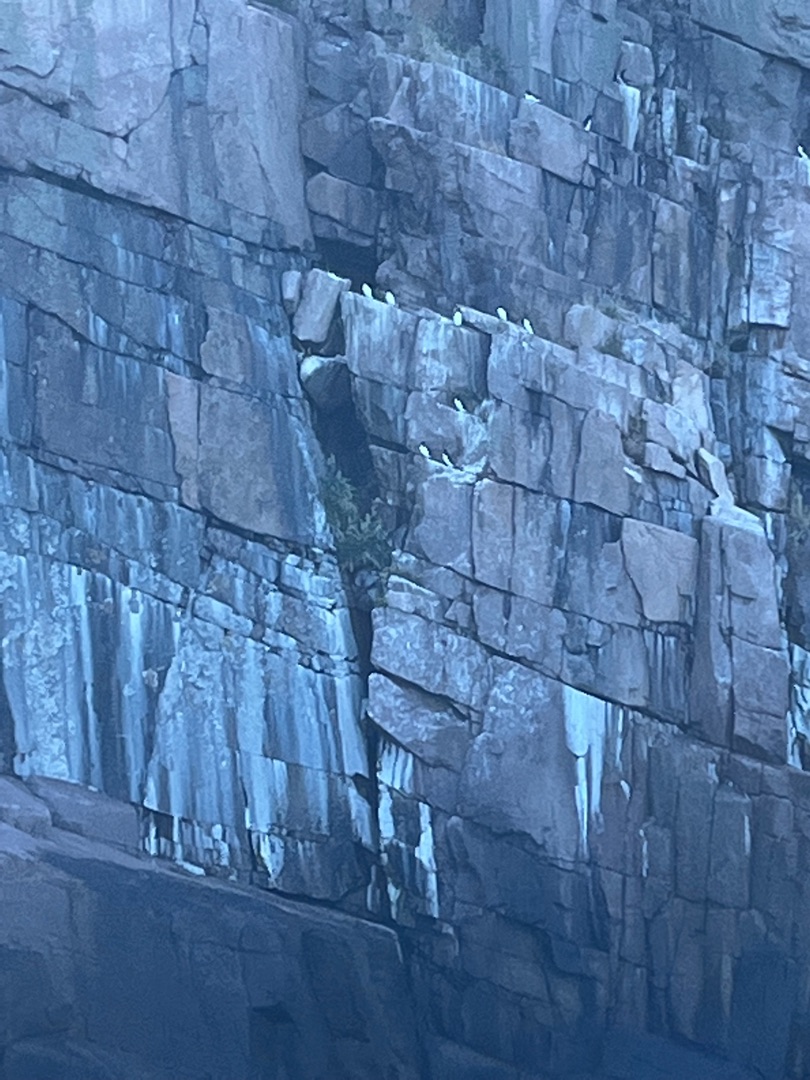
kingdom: Animalia
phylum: Chordata
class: Aves
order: Charadriiformes
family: Alcidae
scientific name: Alcidae
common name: Alkefugle
